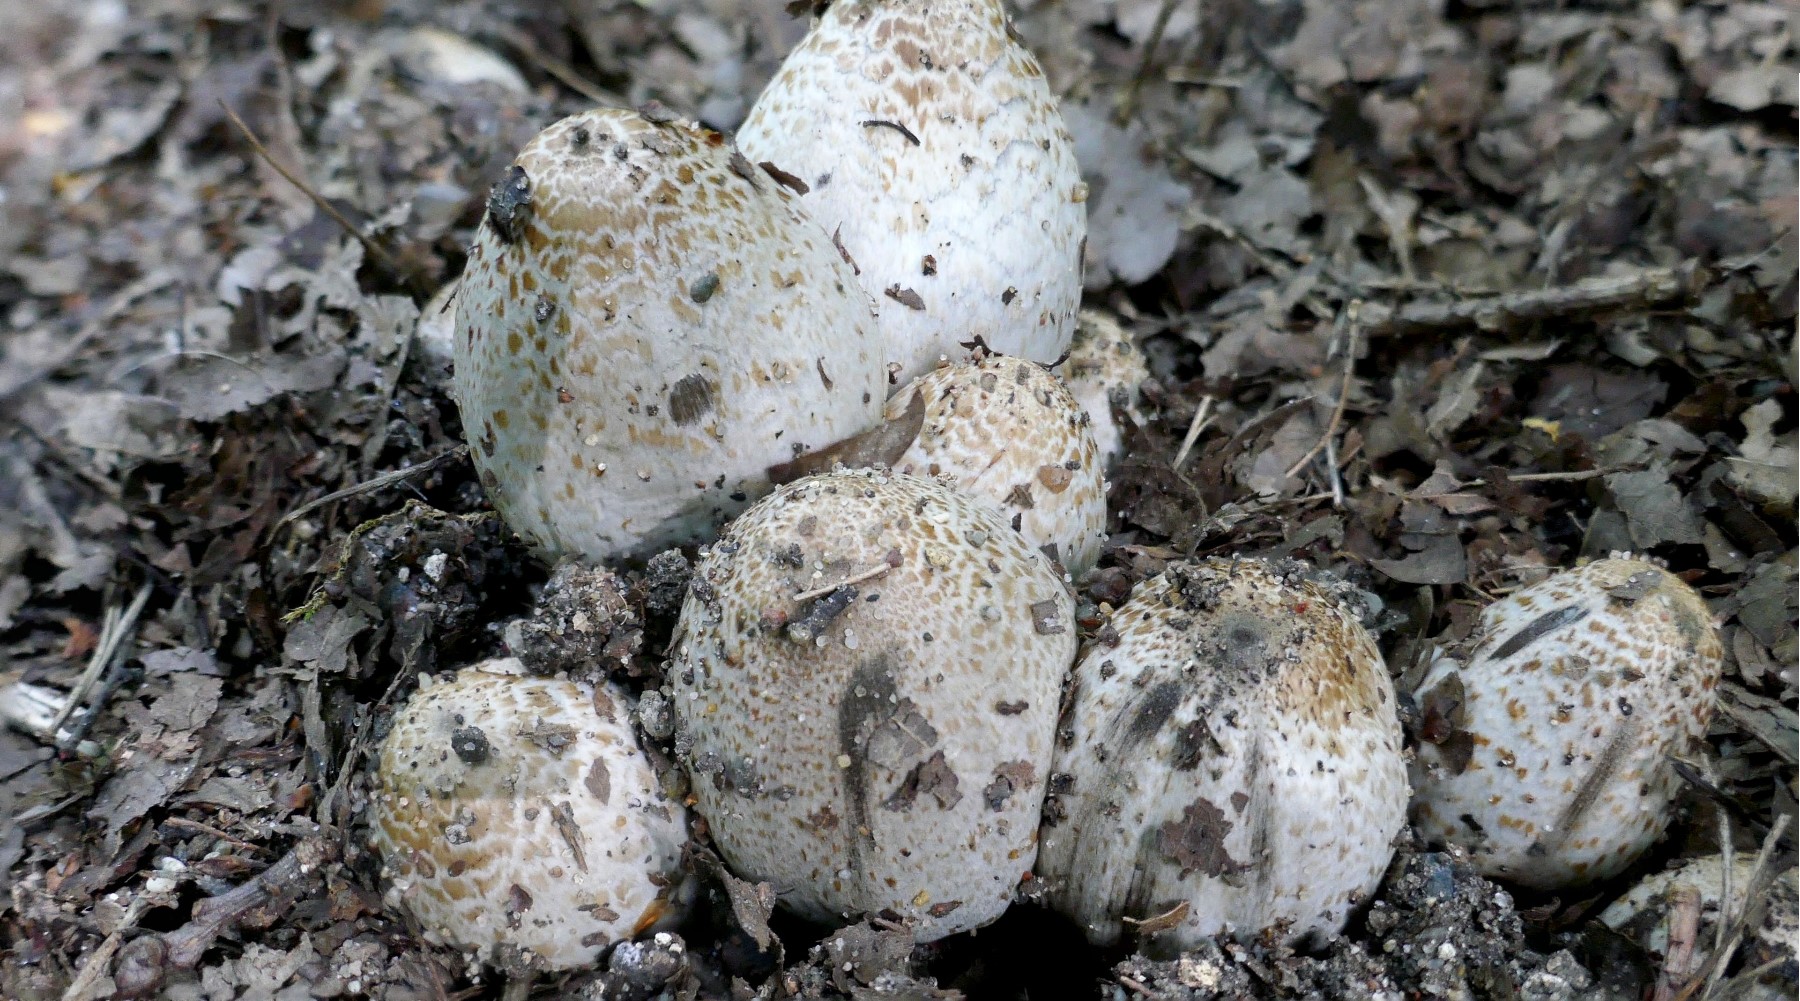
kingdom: Fungi
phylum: Basidiomycota
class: Agaricomycetes
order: Agaricales
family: Psathyrellaceae
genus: Coprinopsis
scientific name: Coprinopsis
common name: blækhat
